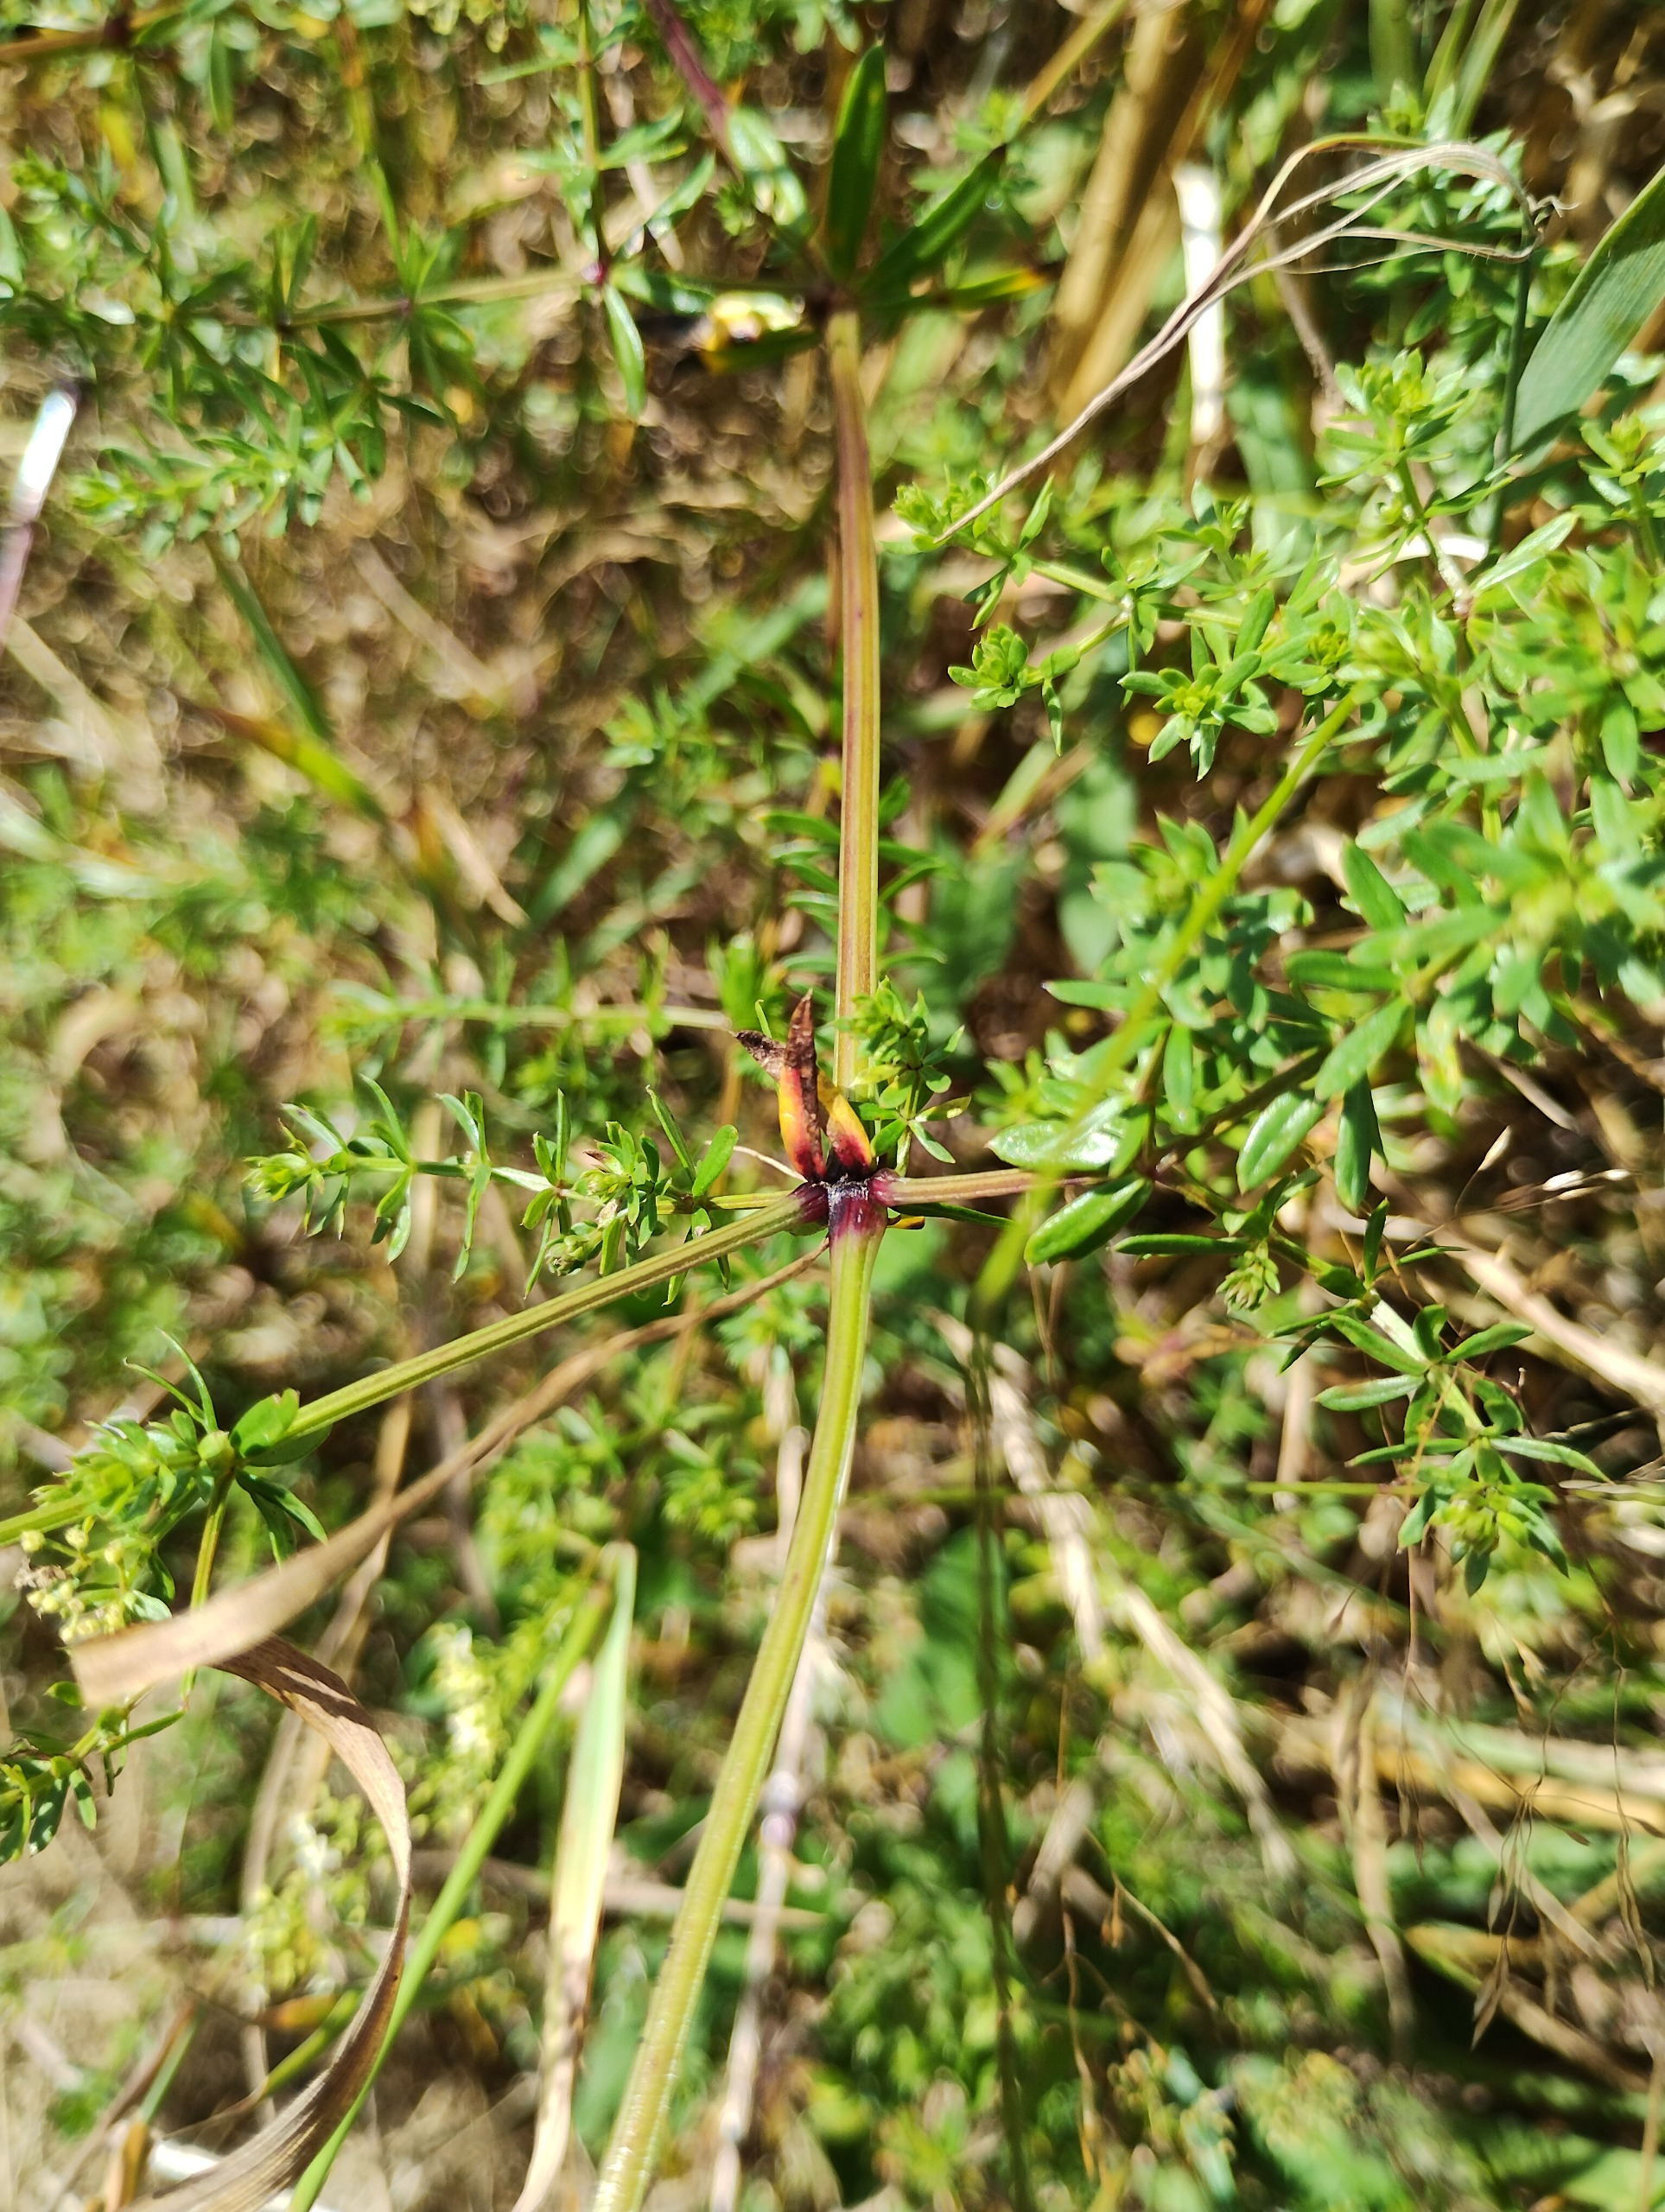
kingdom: Plantae
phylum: Tracheophyta
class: Magnoliopsida
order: Gentianales
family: Rubiaceae
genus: Galium
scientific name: Galium mollugo
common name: Hvid snerre
